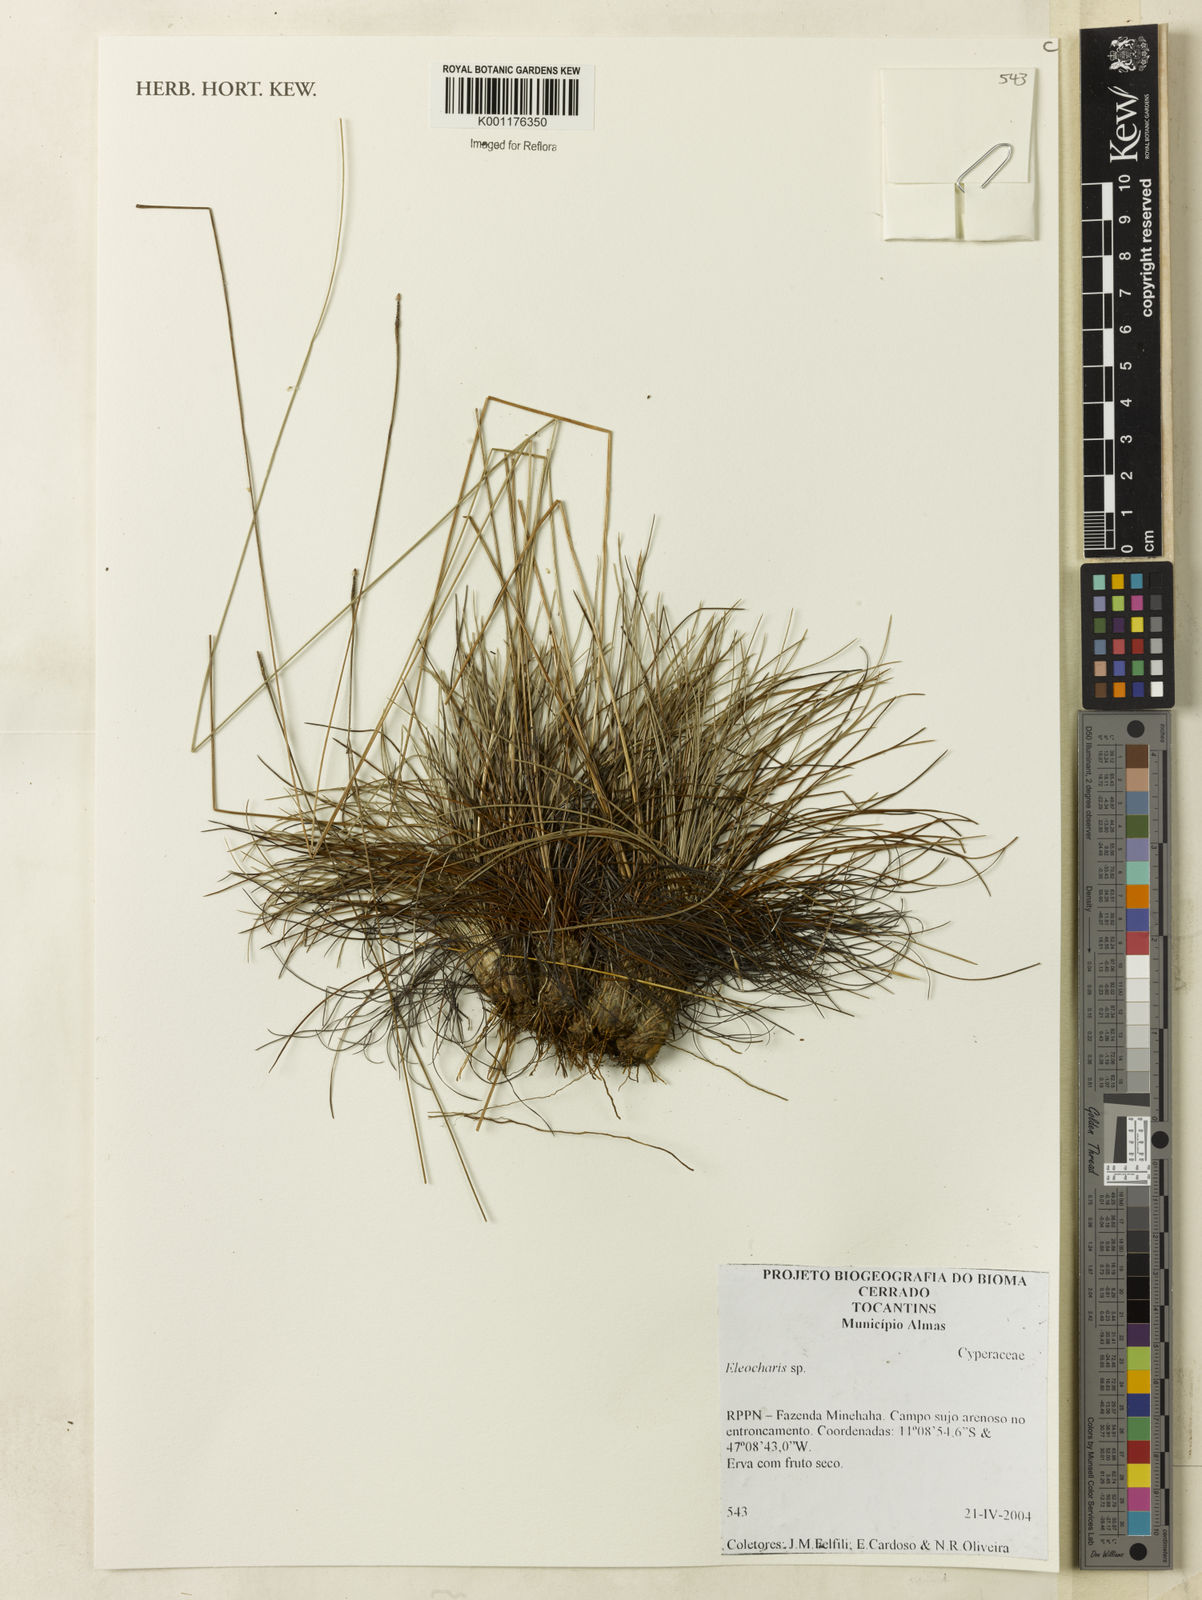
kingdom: Plantae
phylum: Tracheophyta
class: Liliopsida
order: Poales
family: Cyperaceae
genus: Eleocharis
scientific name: Eleocharis
